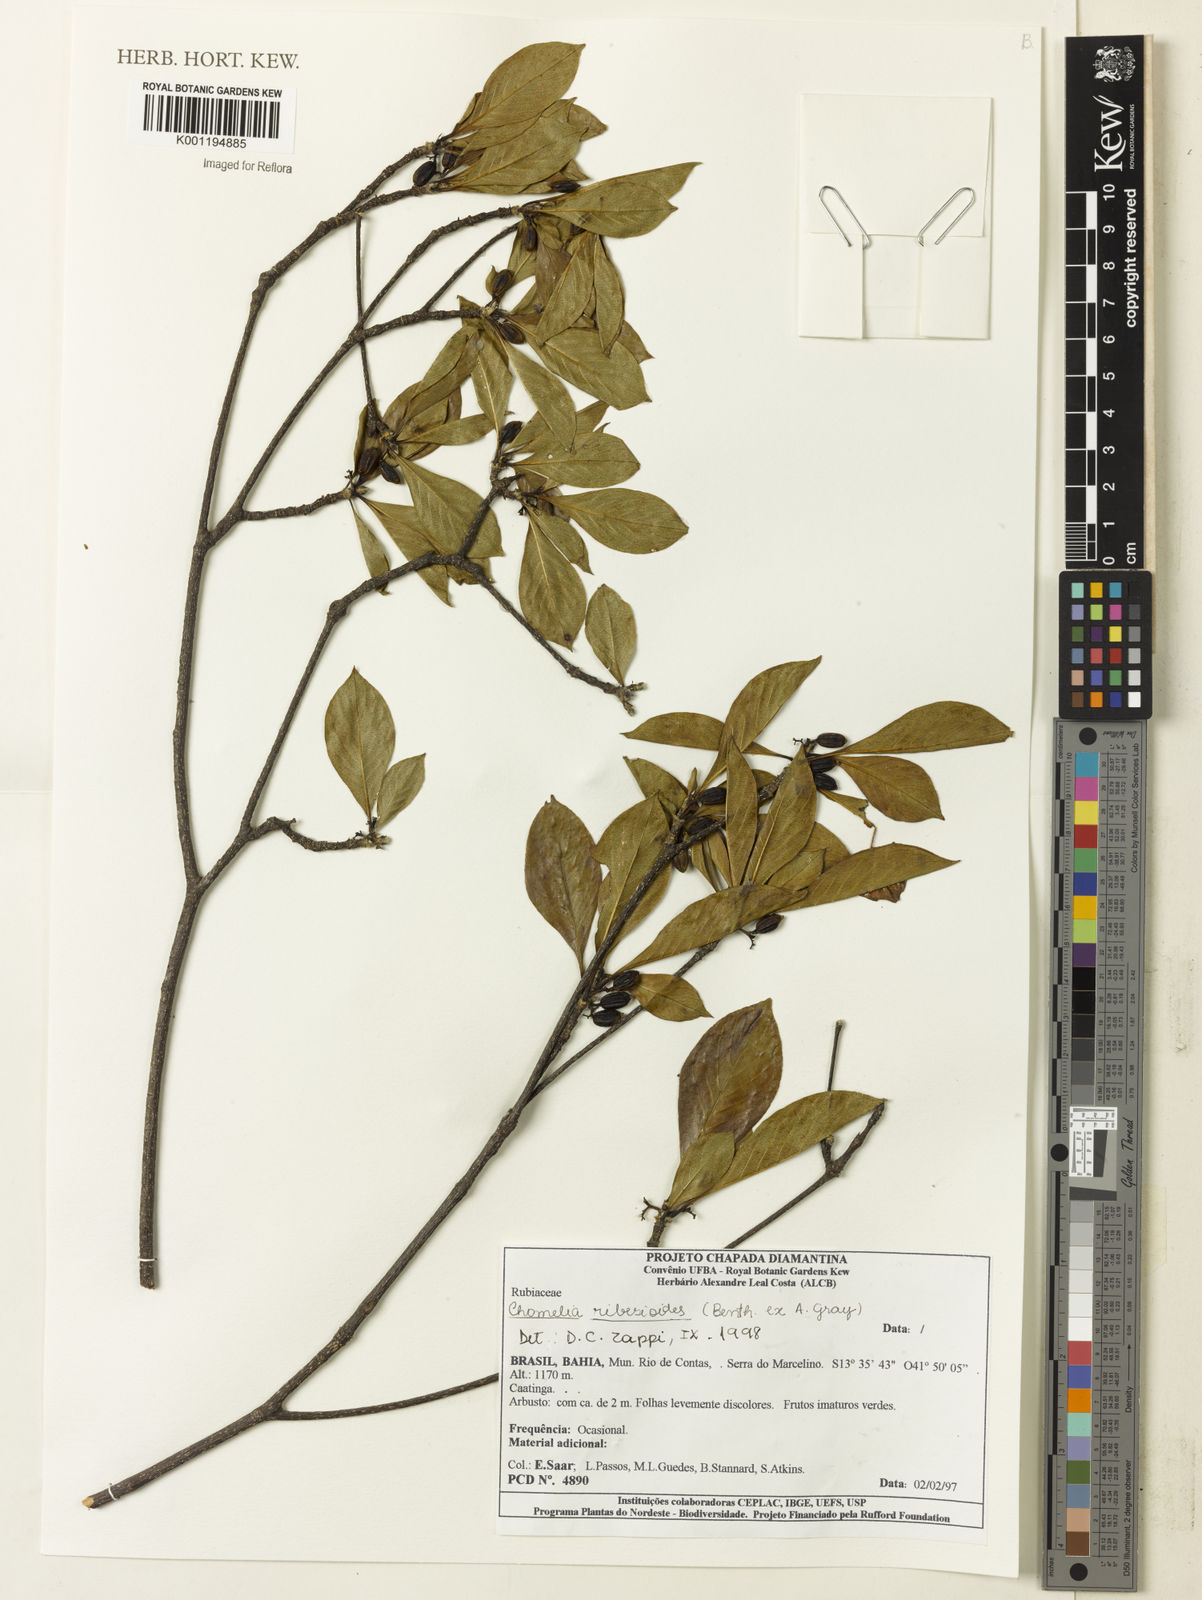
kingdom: Plantae
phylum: Tracheophyta
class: Magnoliopsida
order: Gentianales
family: Rubiaceae
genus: Chomelia
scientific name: Chomelia ribesioides
